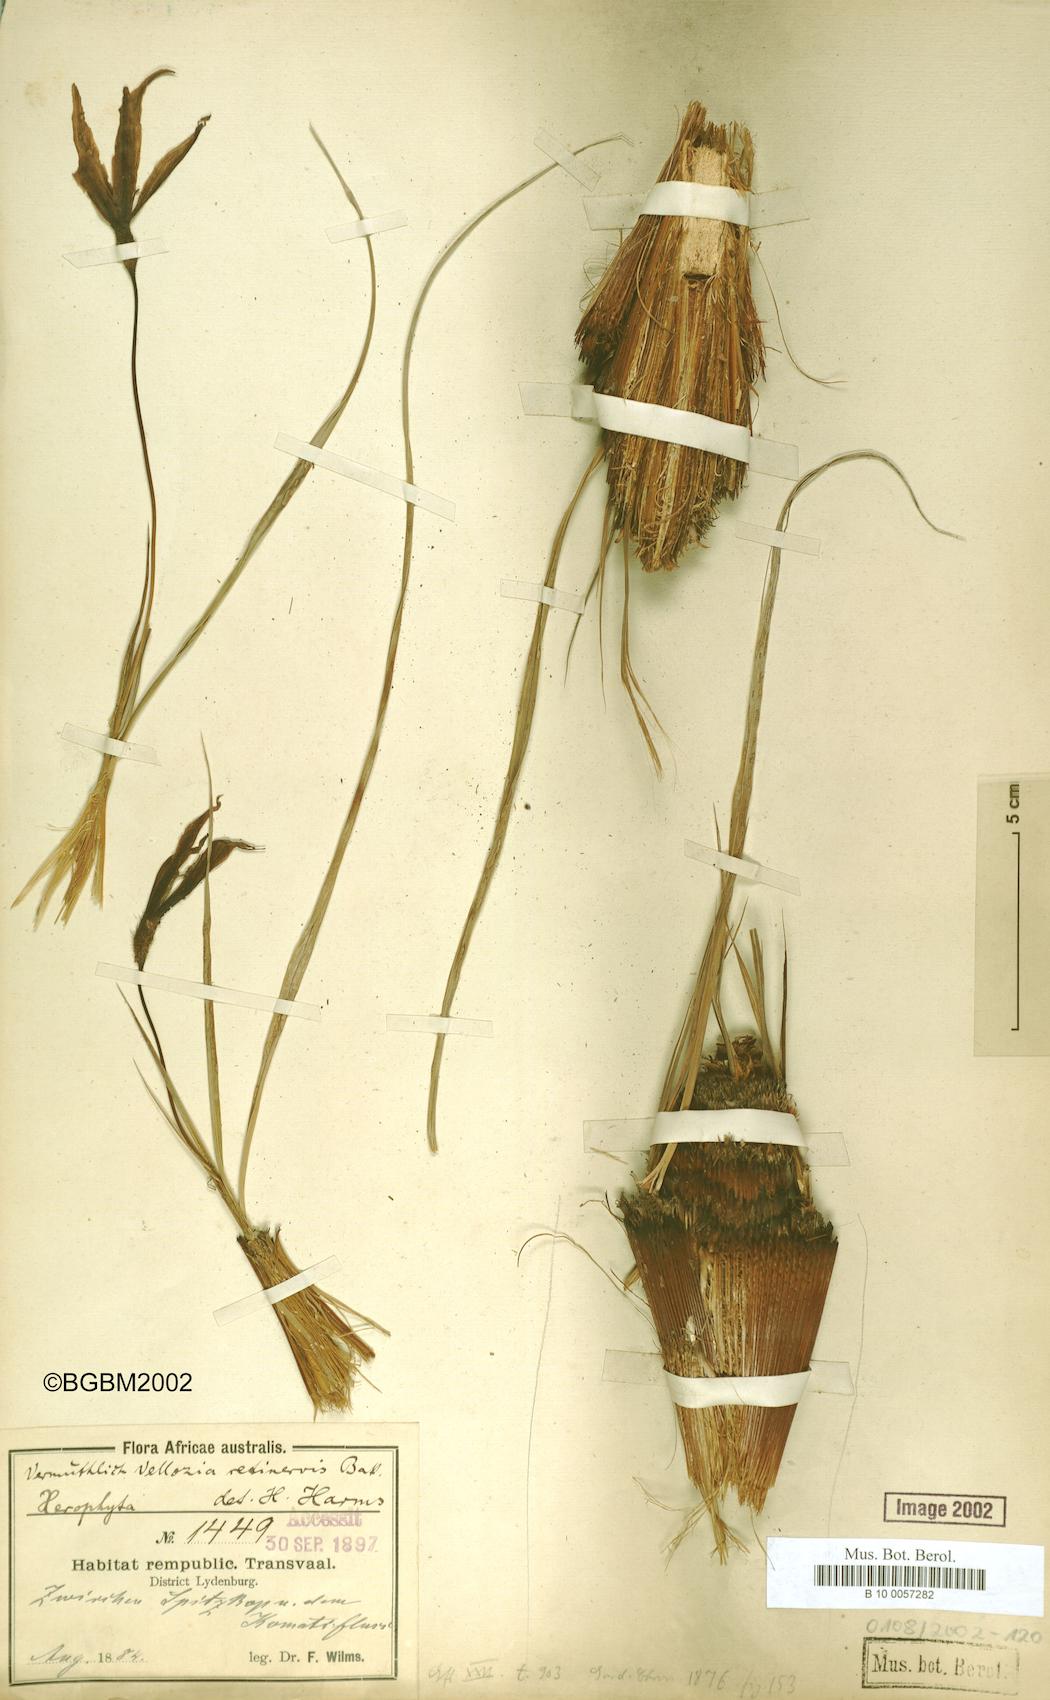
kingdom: Plantae
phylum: Tracheophyta
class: Liliopsida
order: Pandanales
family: Velloziaceae
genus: Xerophyta
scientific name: Xerophyta retinervis
